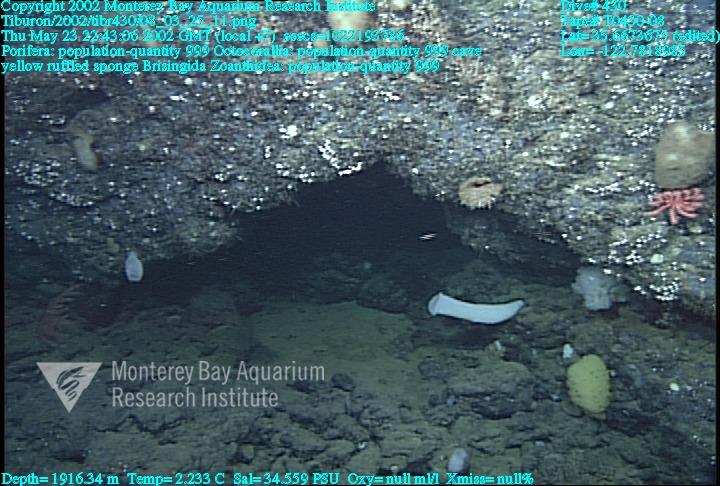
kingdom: Animalia
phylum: Porifera
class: Hexactinellida
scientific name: Hexactinellida
